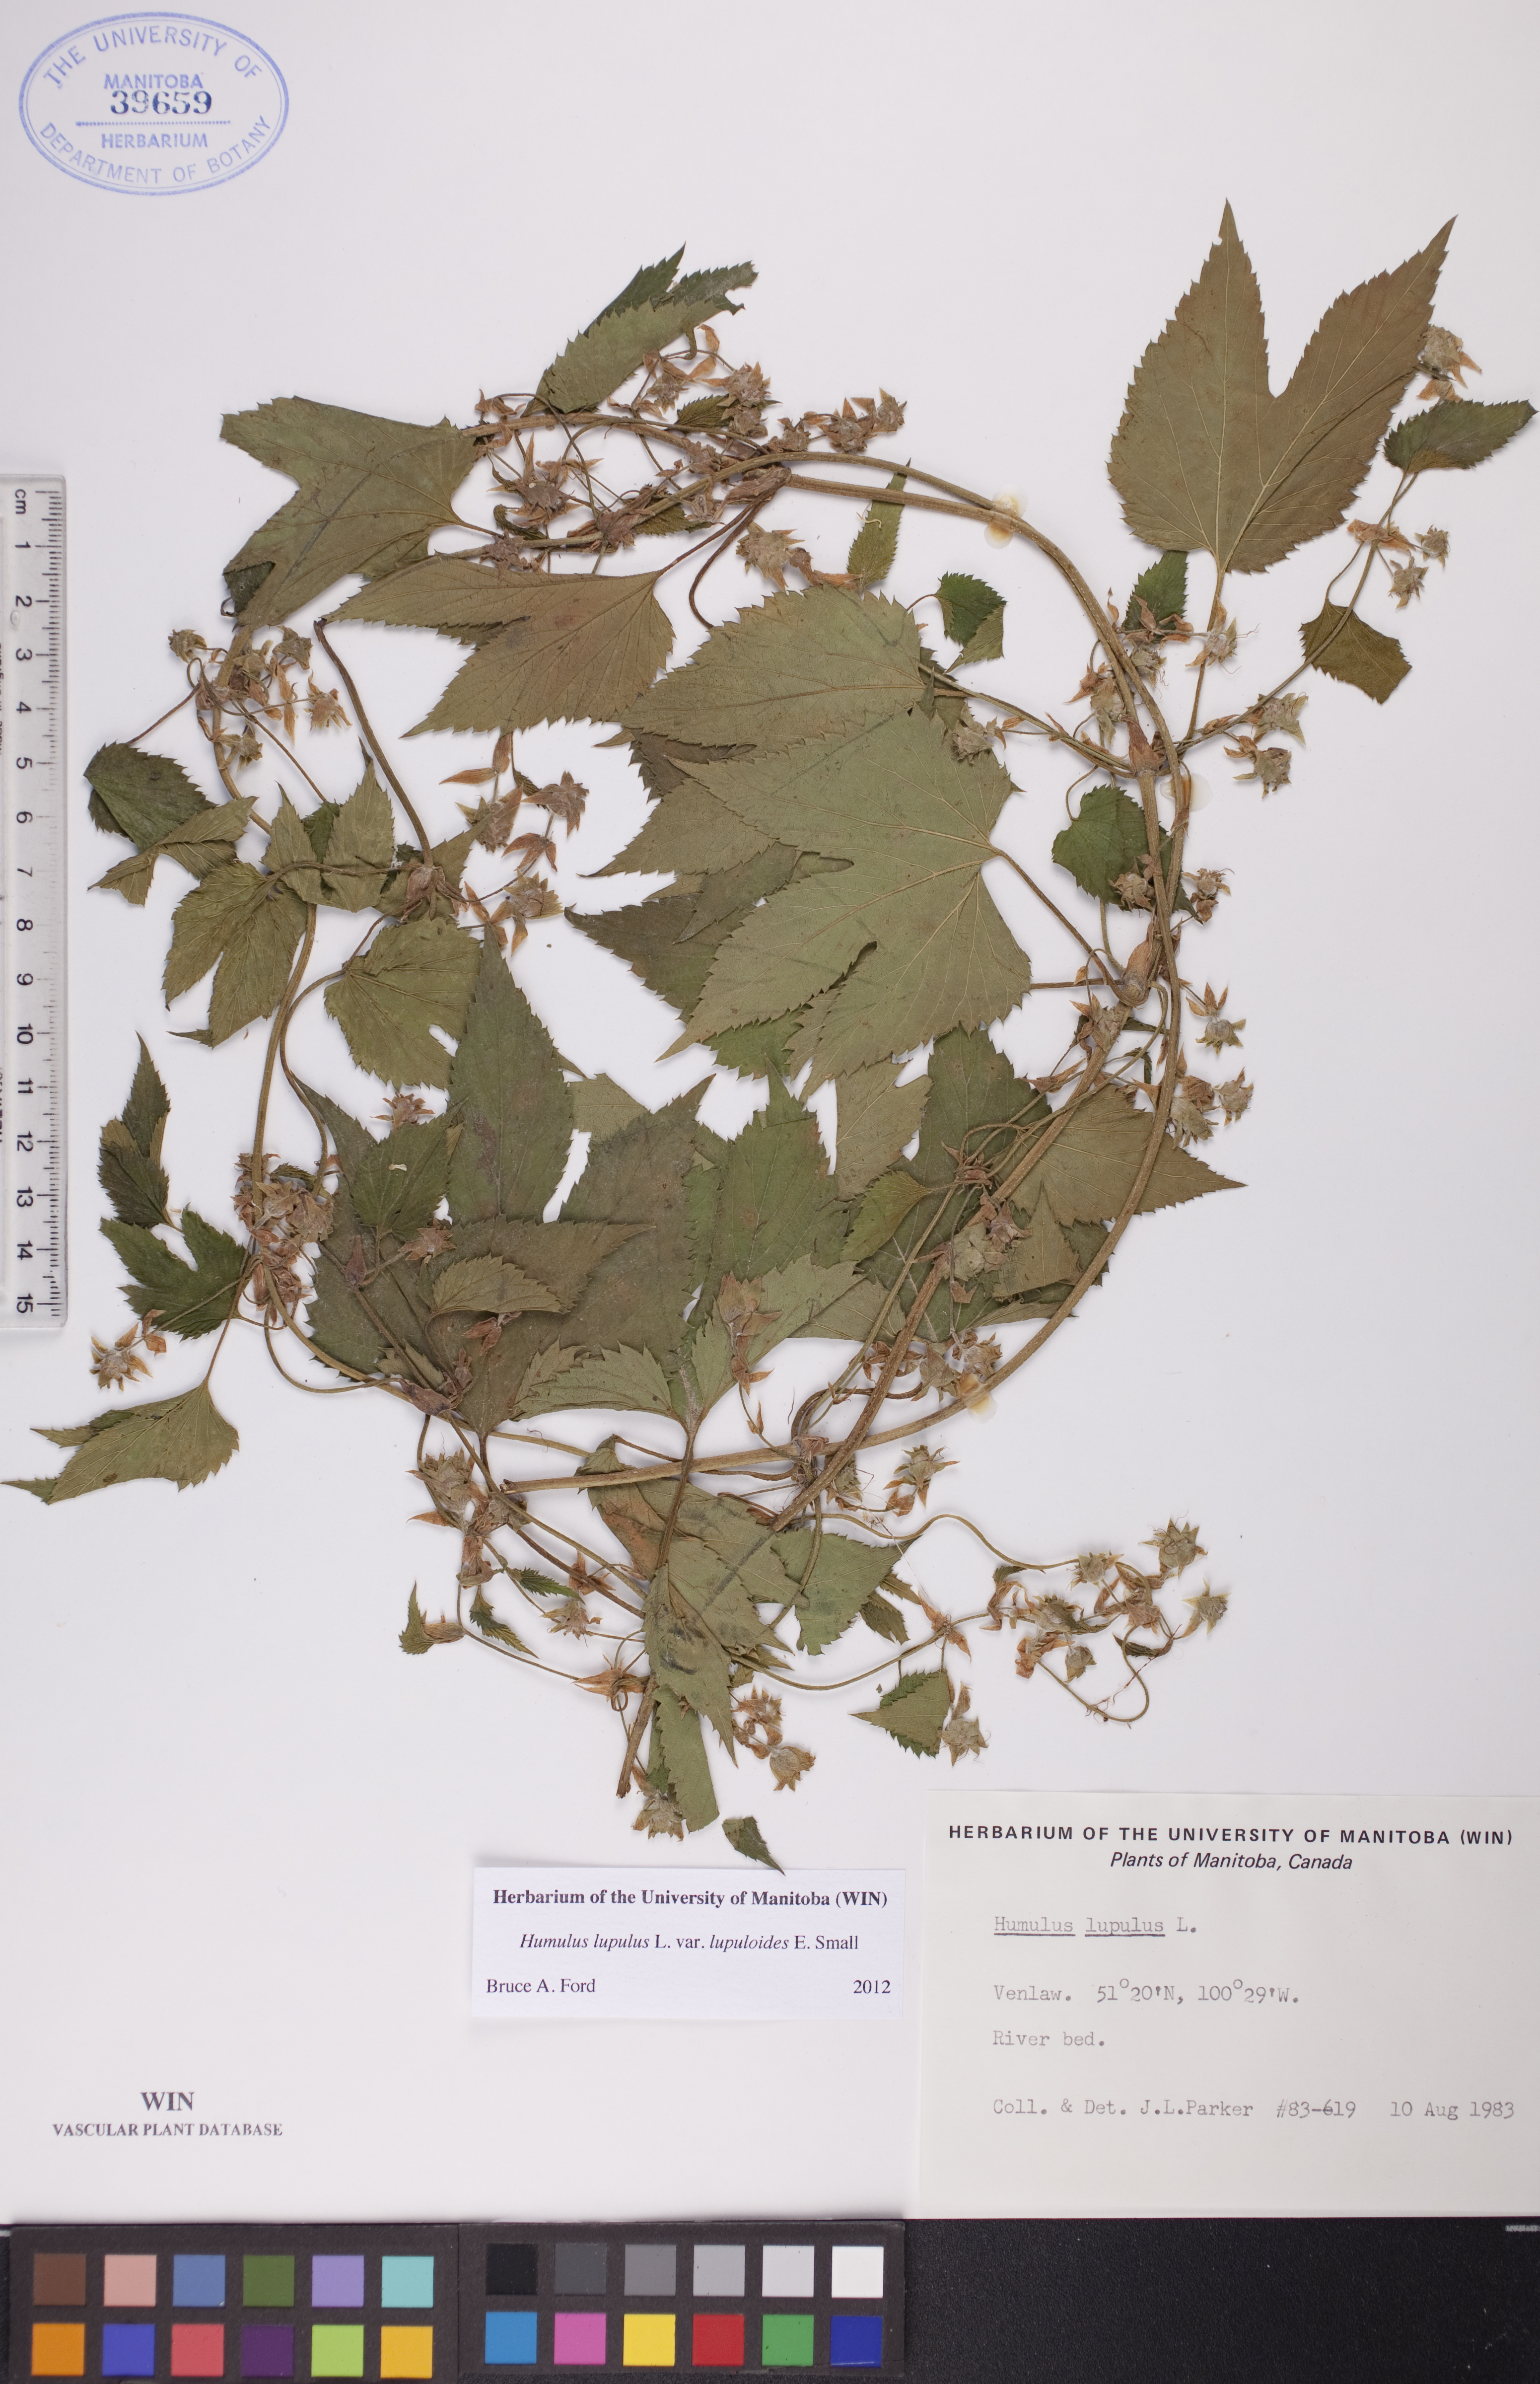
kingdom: Plantae
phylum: Tracheophyta
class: Magnoliopsida
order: Rosales
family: Cannabaceae
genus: Humulus
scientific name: Humulus americanus
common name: American hops
